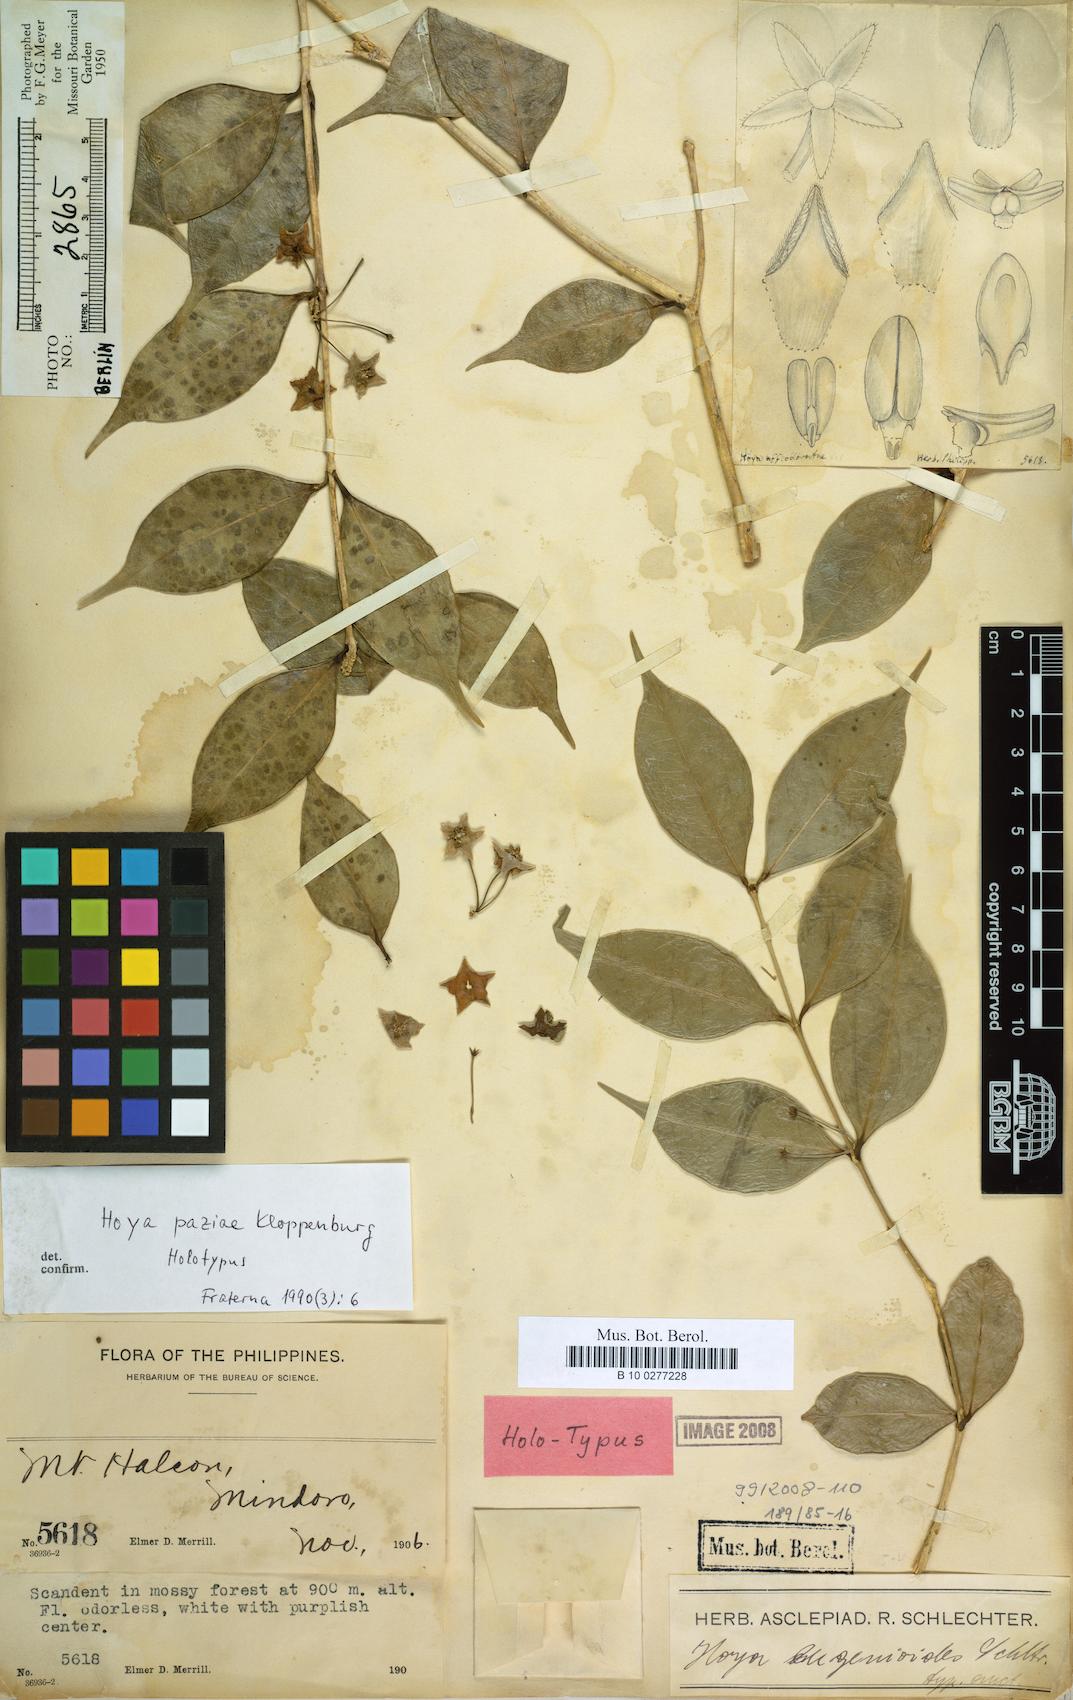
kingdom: Plantae
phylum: Tracheophyta
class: Magnoliopsida
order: Gentianales
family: Apocynaceae
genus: Hoya
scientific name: Hoya paziae
